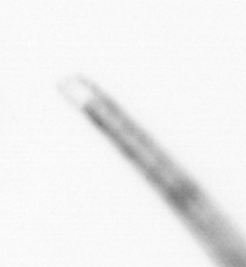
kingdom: Chromista
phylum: Ochrophyta
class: Bacillariophyceae
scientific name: Bacillariophyceae
